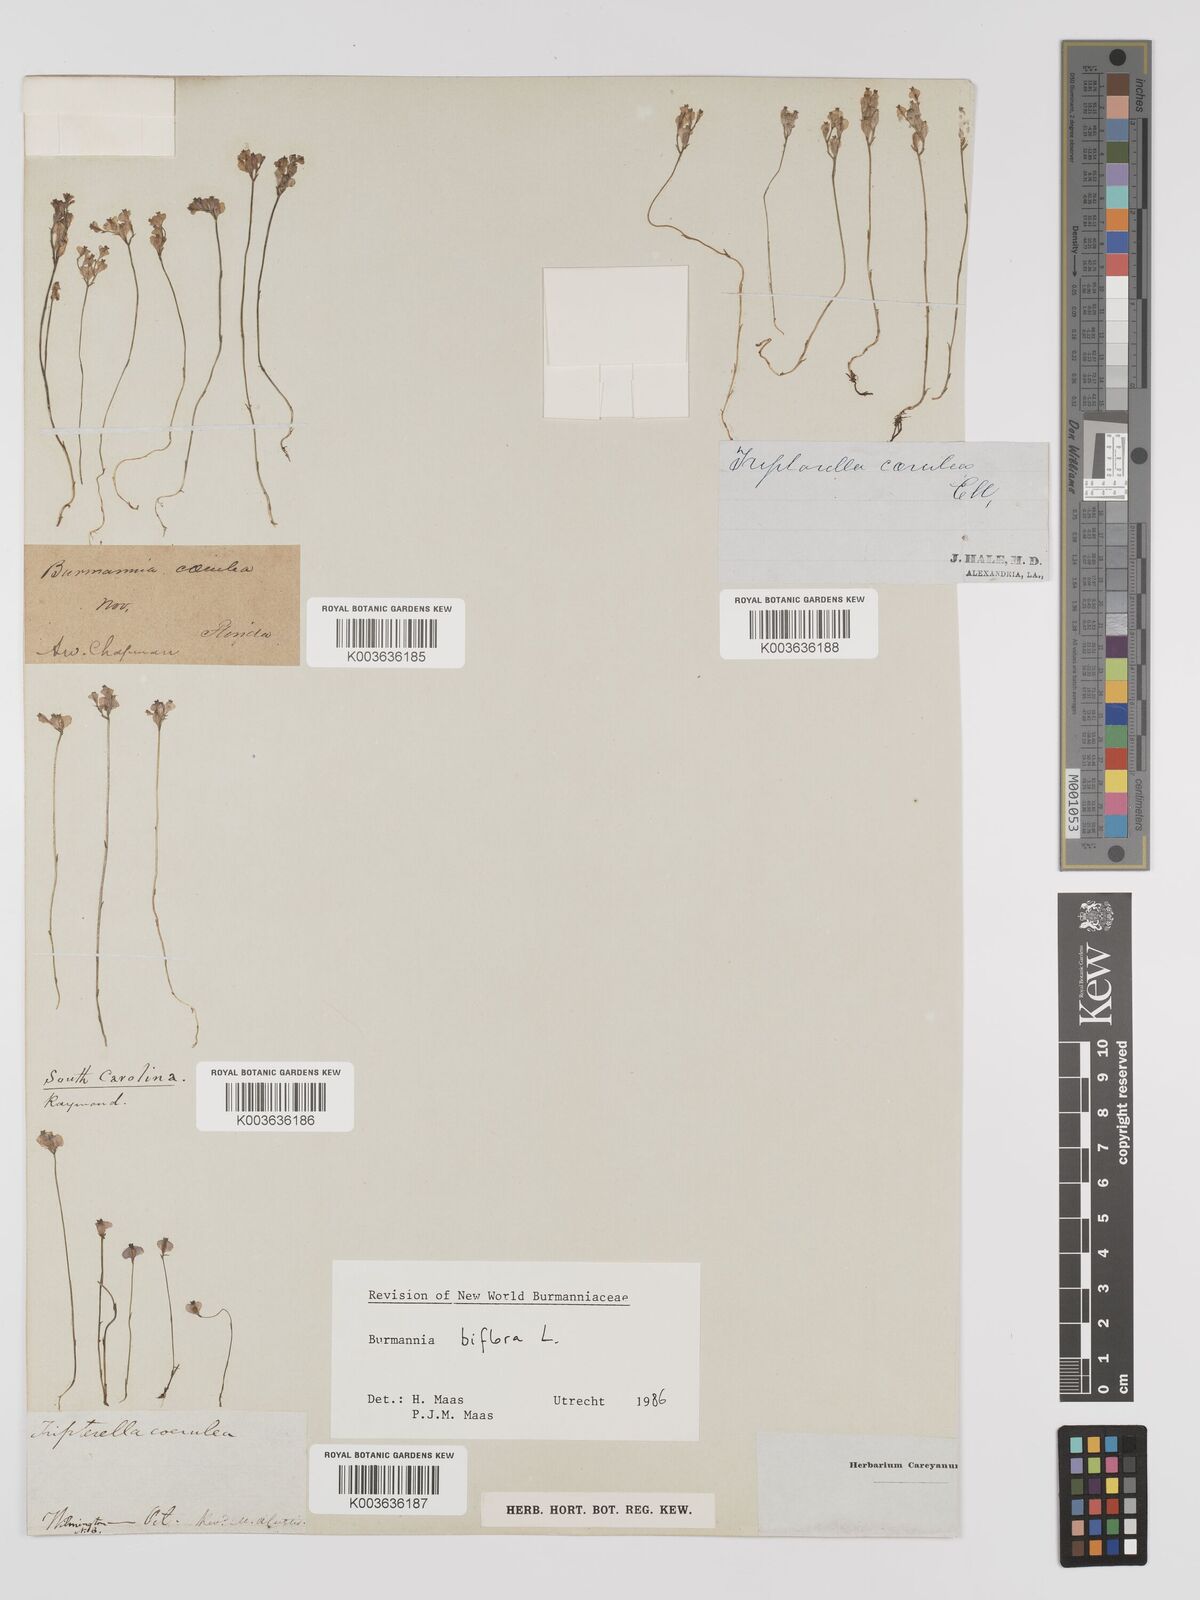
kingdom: Plantae
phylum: Tracheophyta
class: Liliopsida
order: Dioscoreales
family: Burmanniaceae
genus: Burmannia
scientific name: Burmannia biflora
